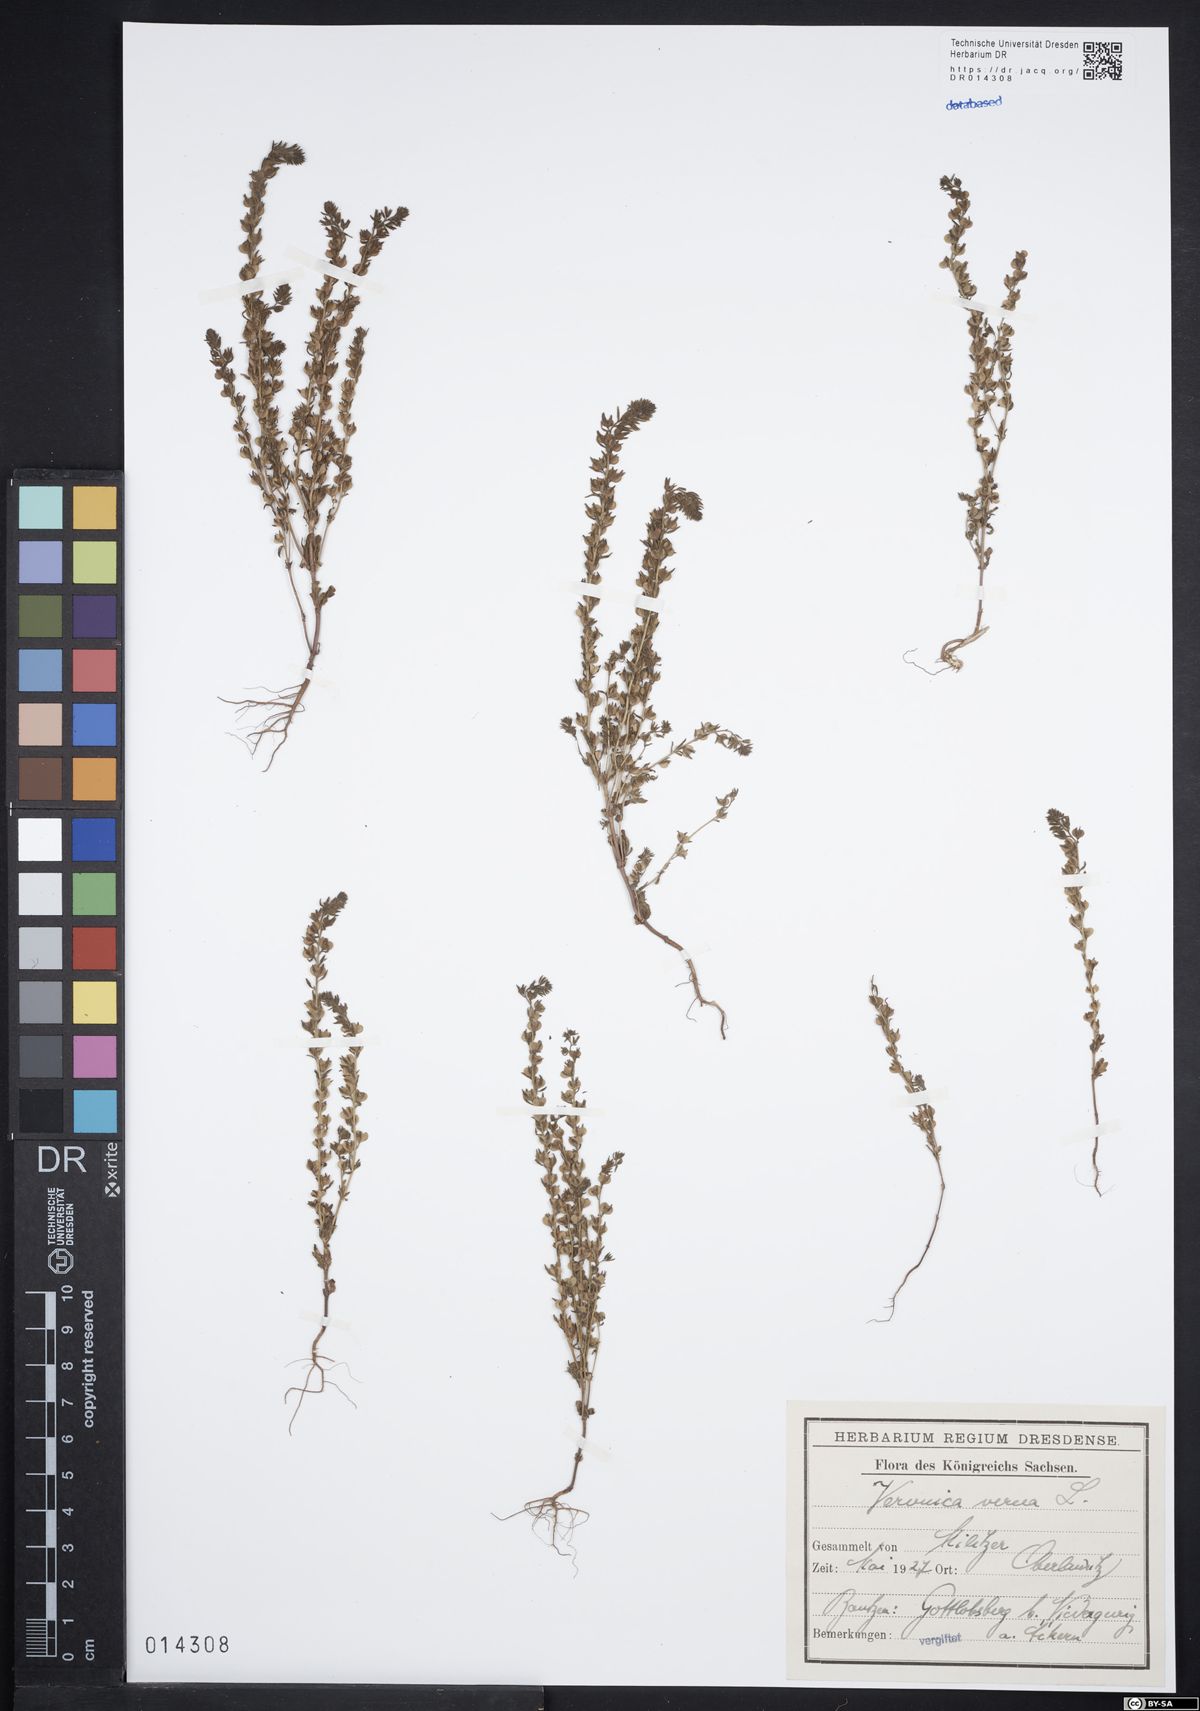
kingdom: Plantae
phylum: Tracheophyta
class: Magnoliopsida
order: Lamiales
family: Plantaginaceae
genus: Veronica
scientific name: Veronica verna
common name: Spring speedwell
